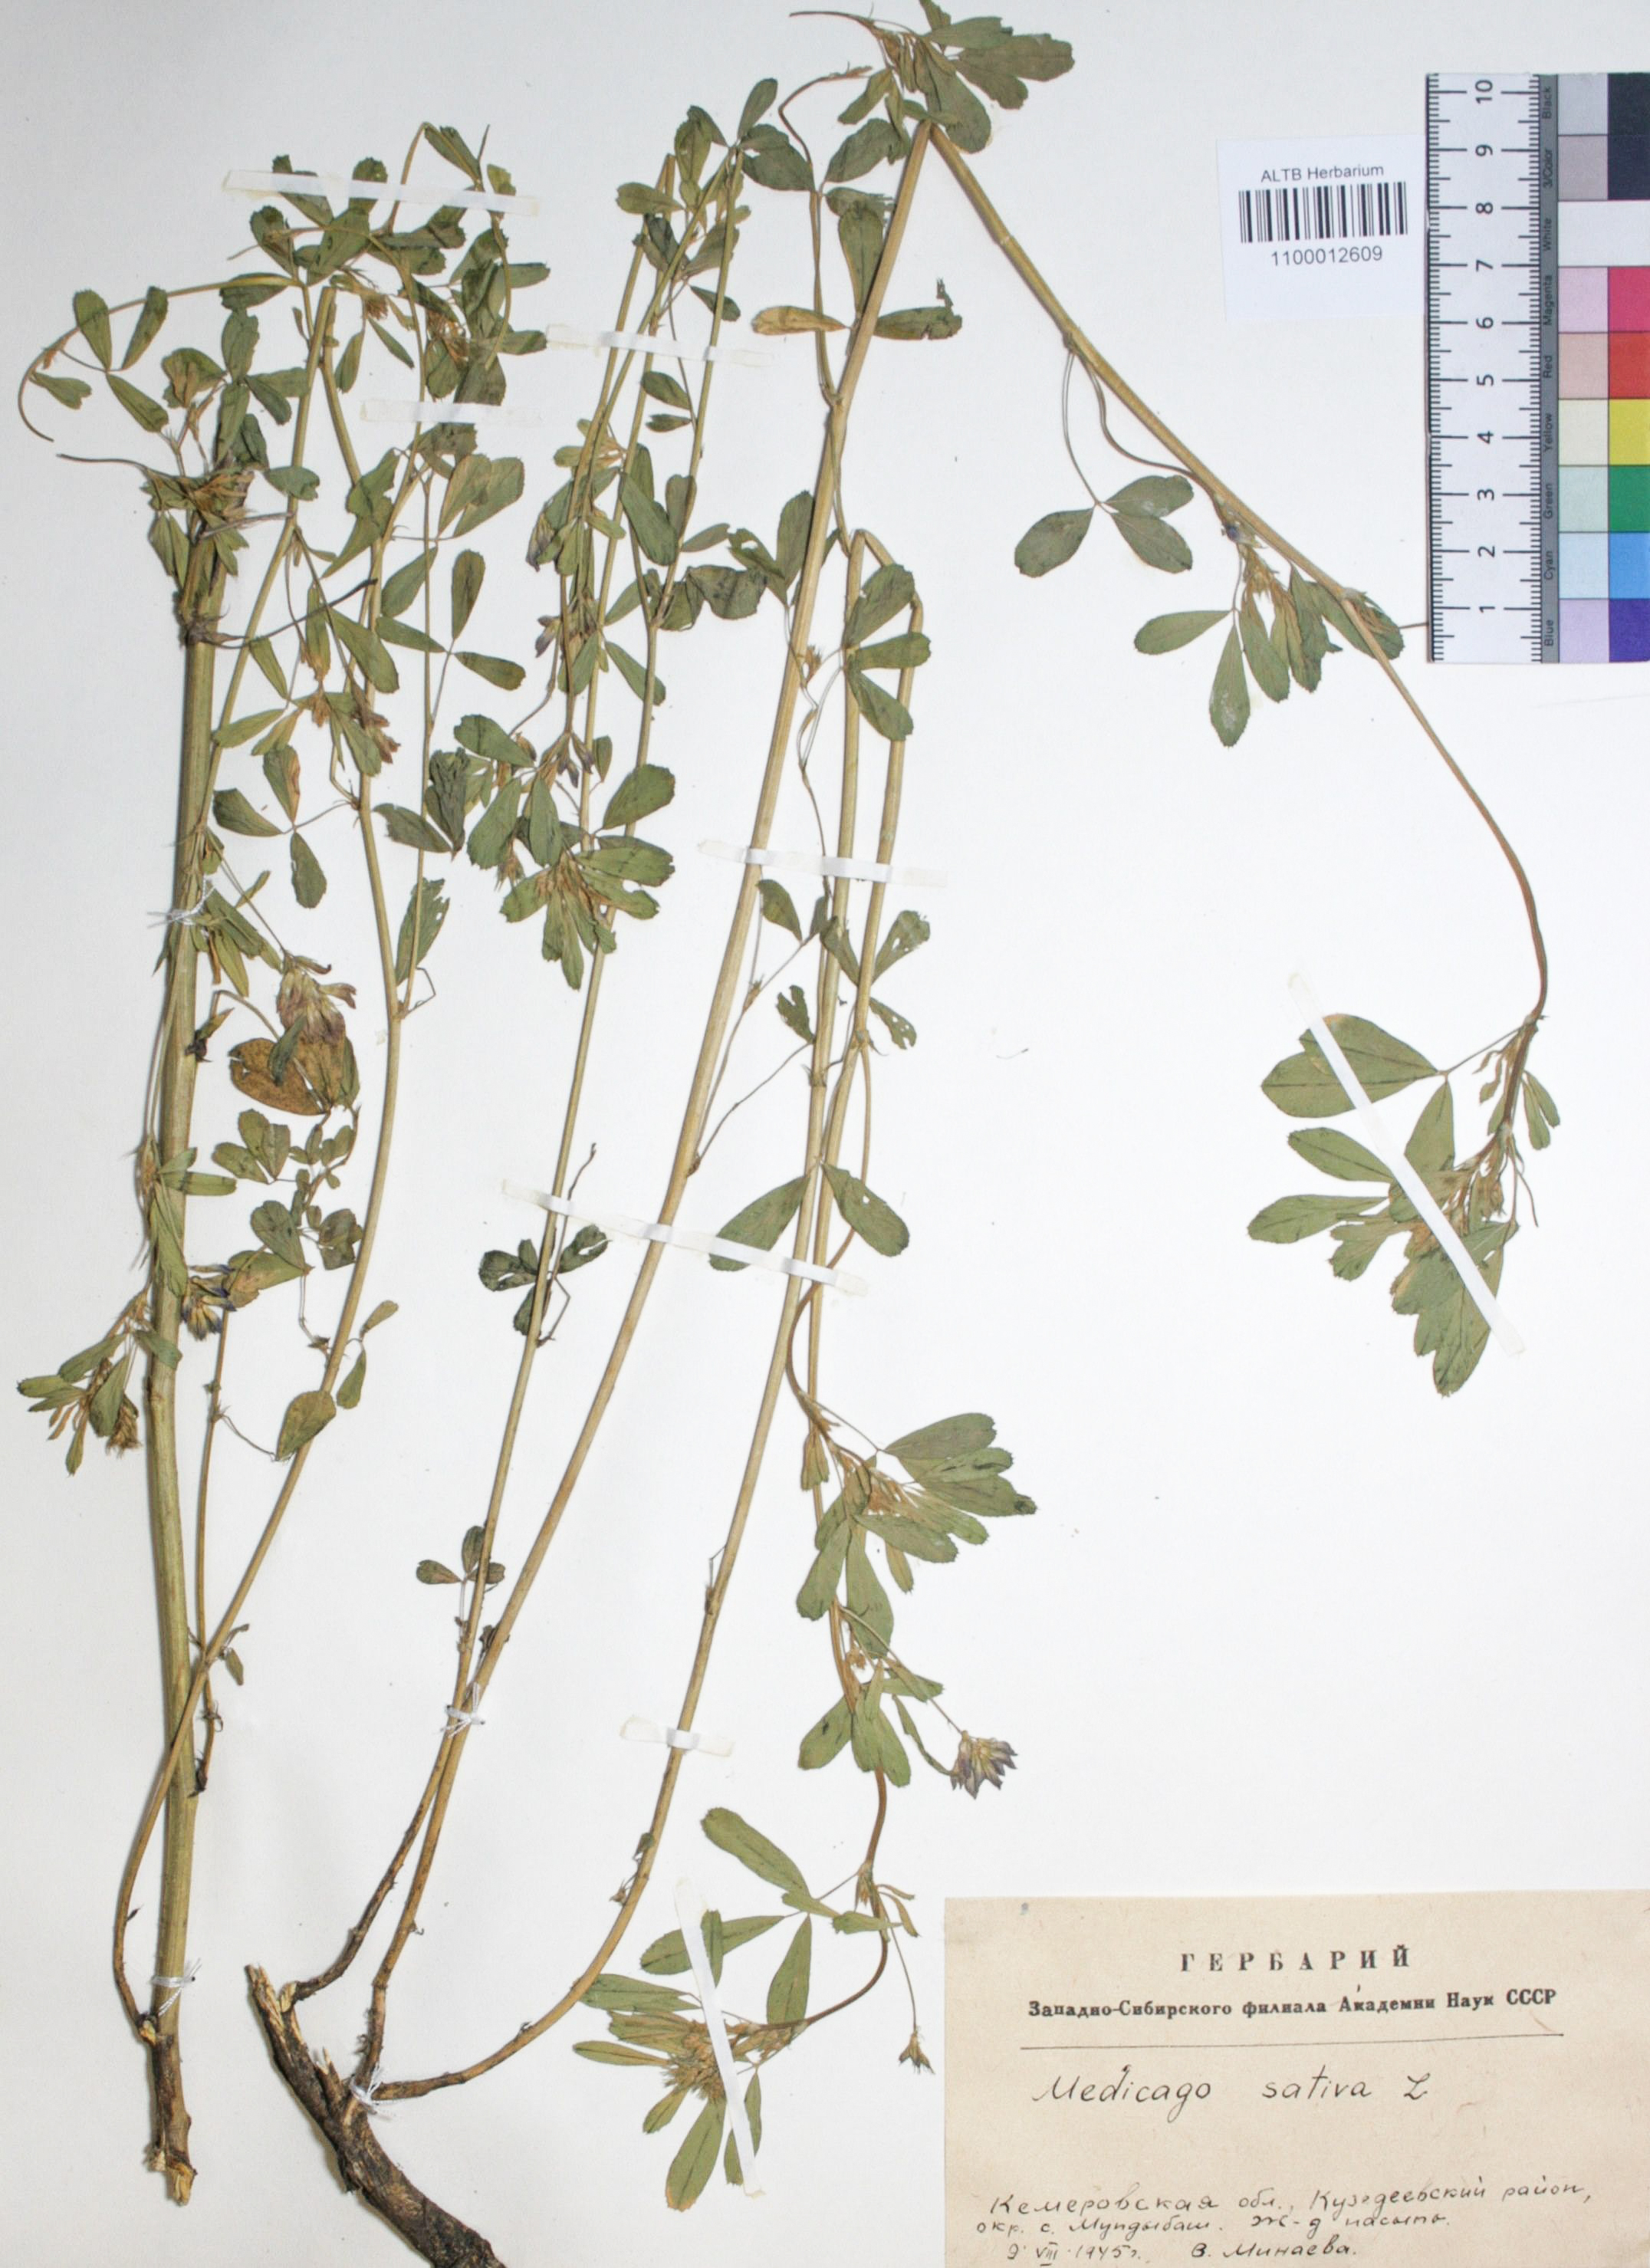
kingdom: Plantae
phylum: Tracheophyta
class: Magnoliopsida
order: Fabales
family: Fabaceae
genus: Medicago
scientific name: Medicago sativa
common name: Alfalfa
